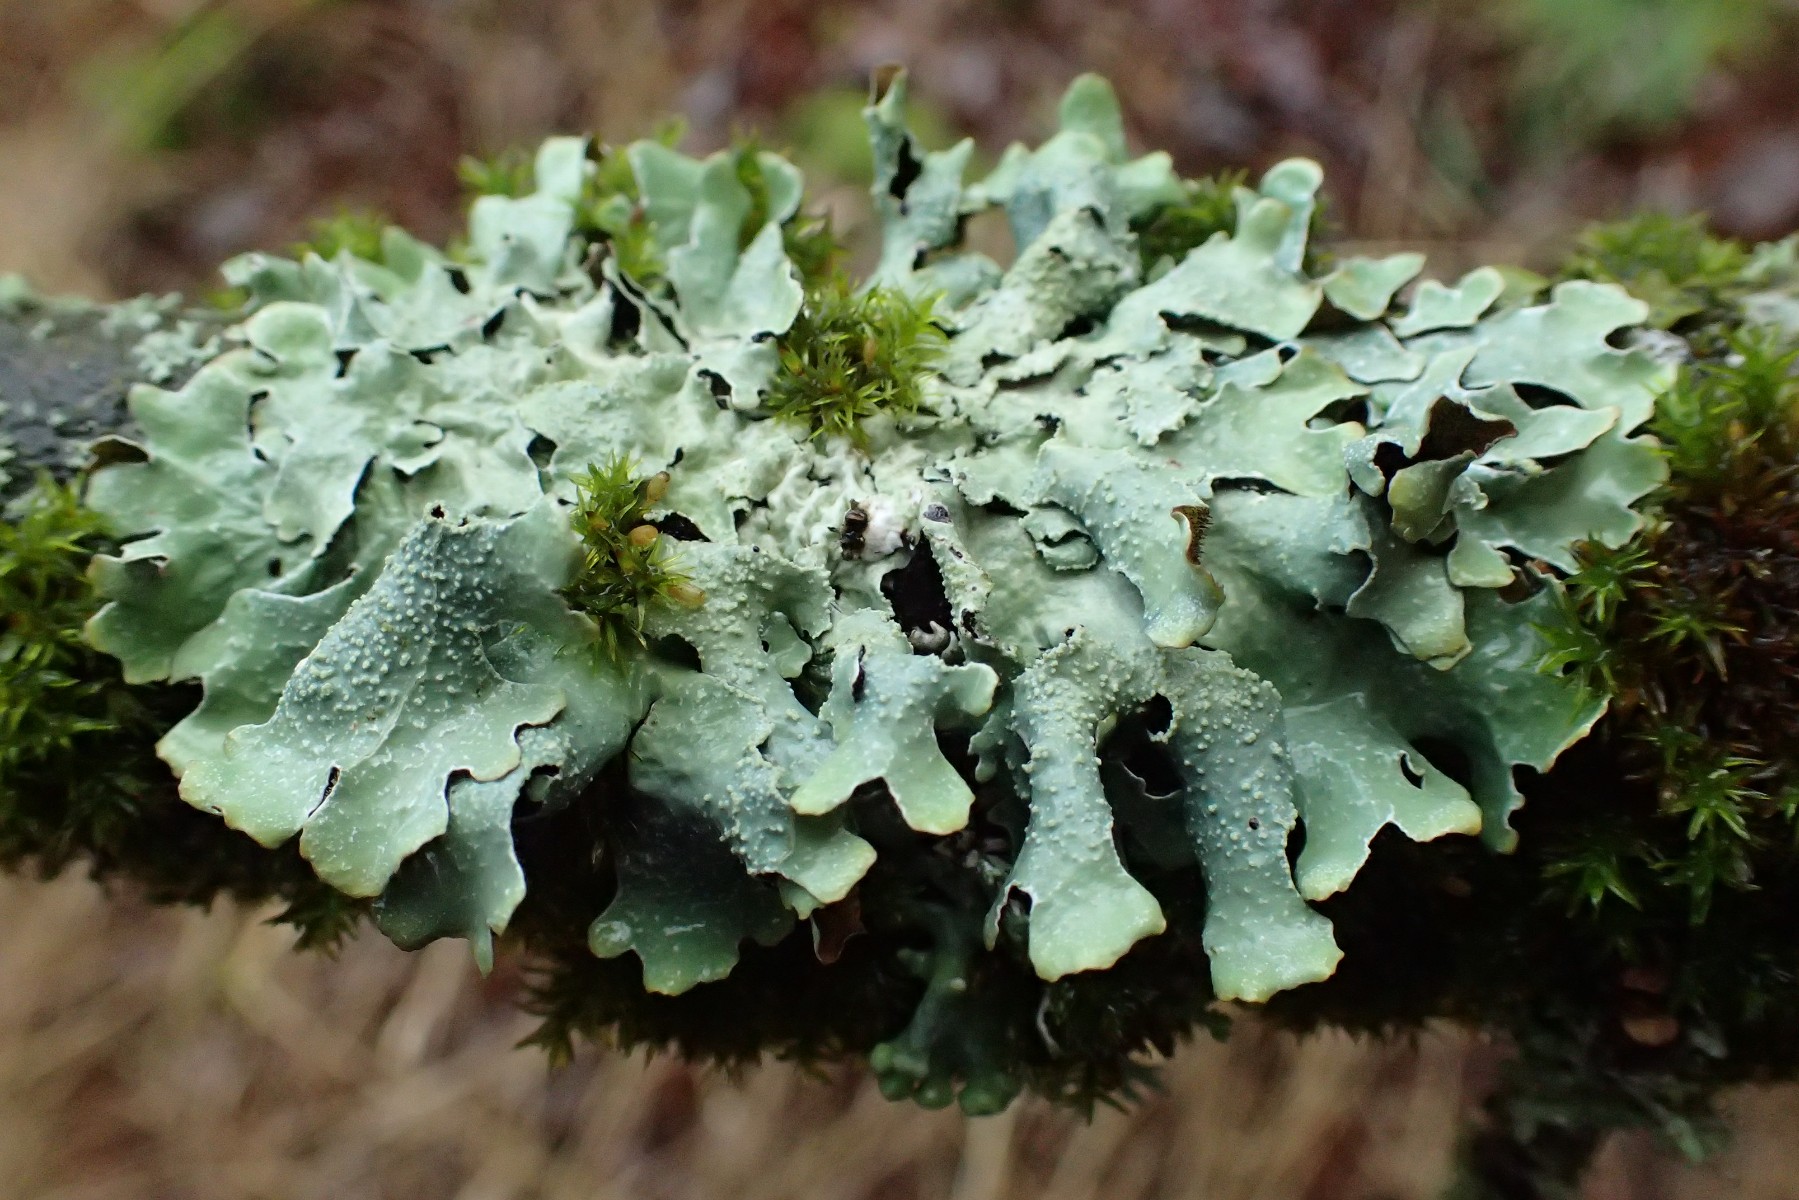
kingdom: Fungi
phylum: Ascomycota
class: Lecanoromycetes
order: Lecanorales
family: Parmeliaceae
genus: Parmelia
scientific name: Parmelia submontana
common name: langlobet skållav
